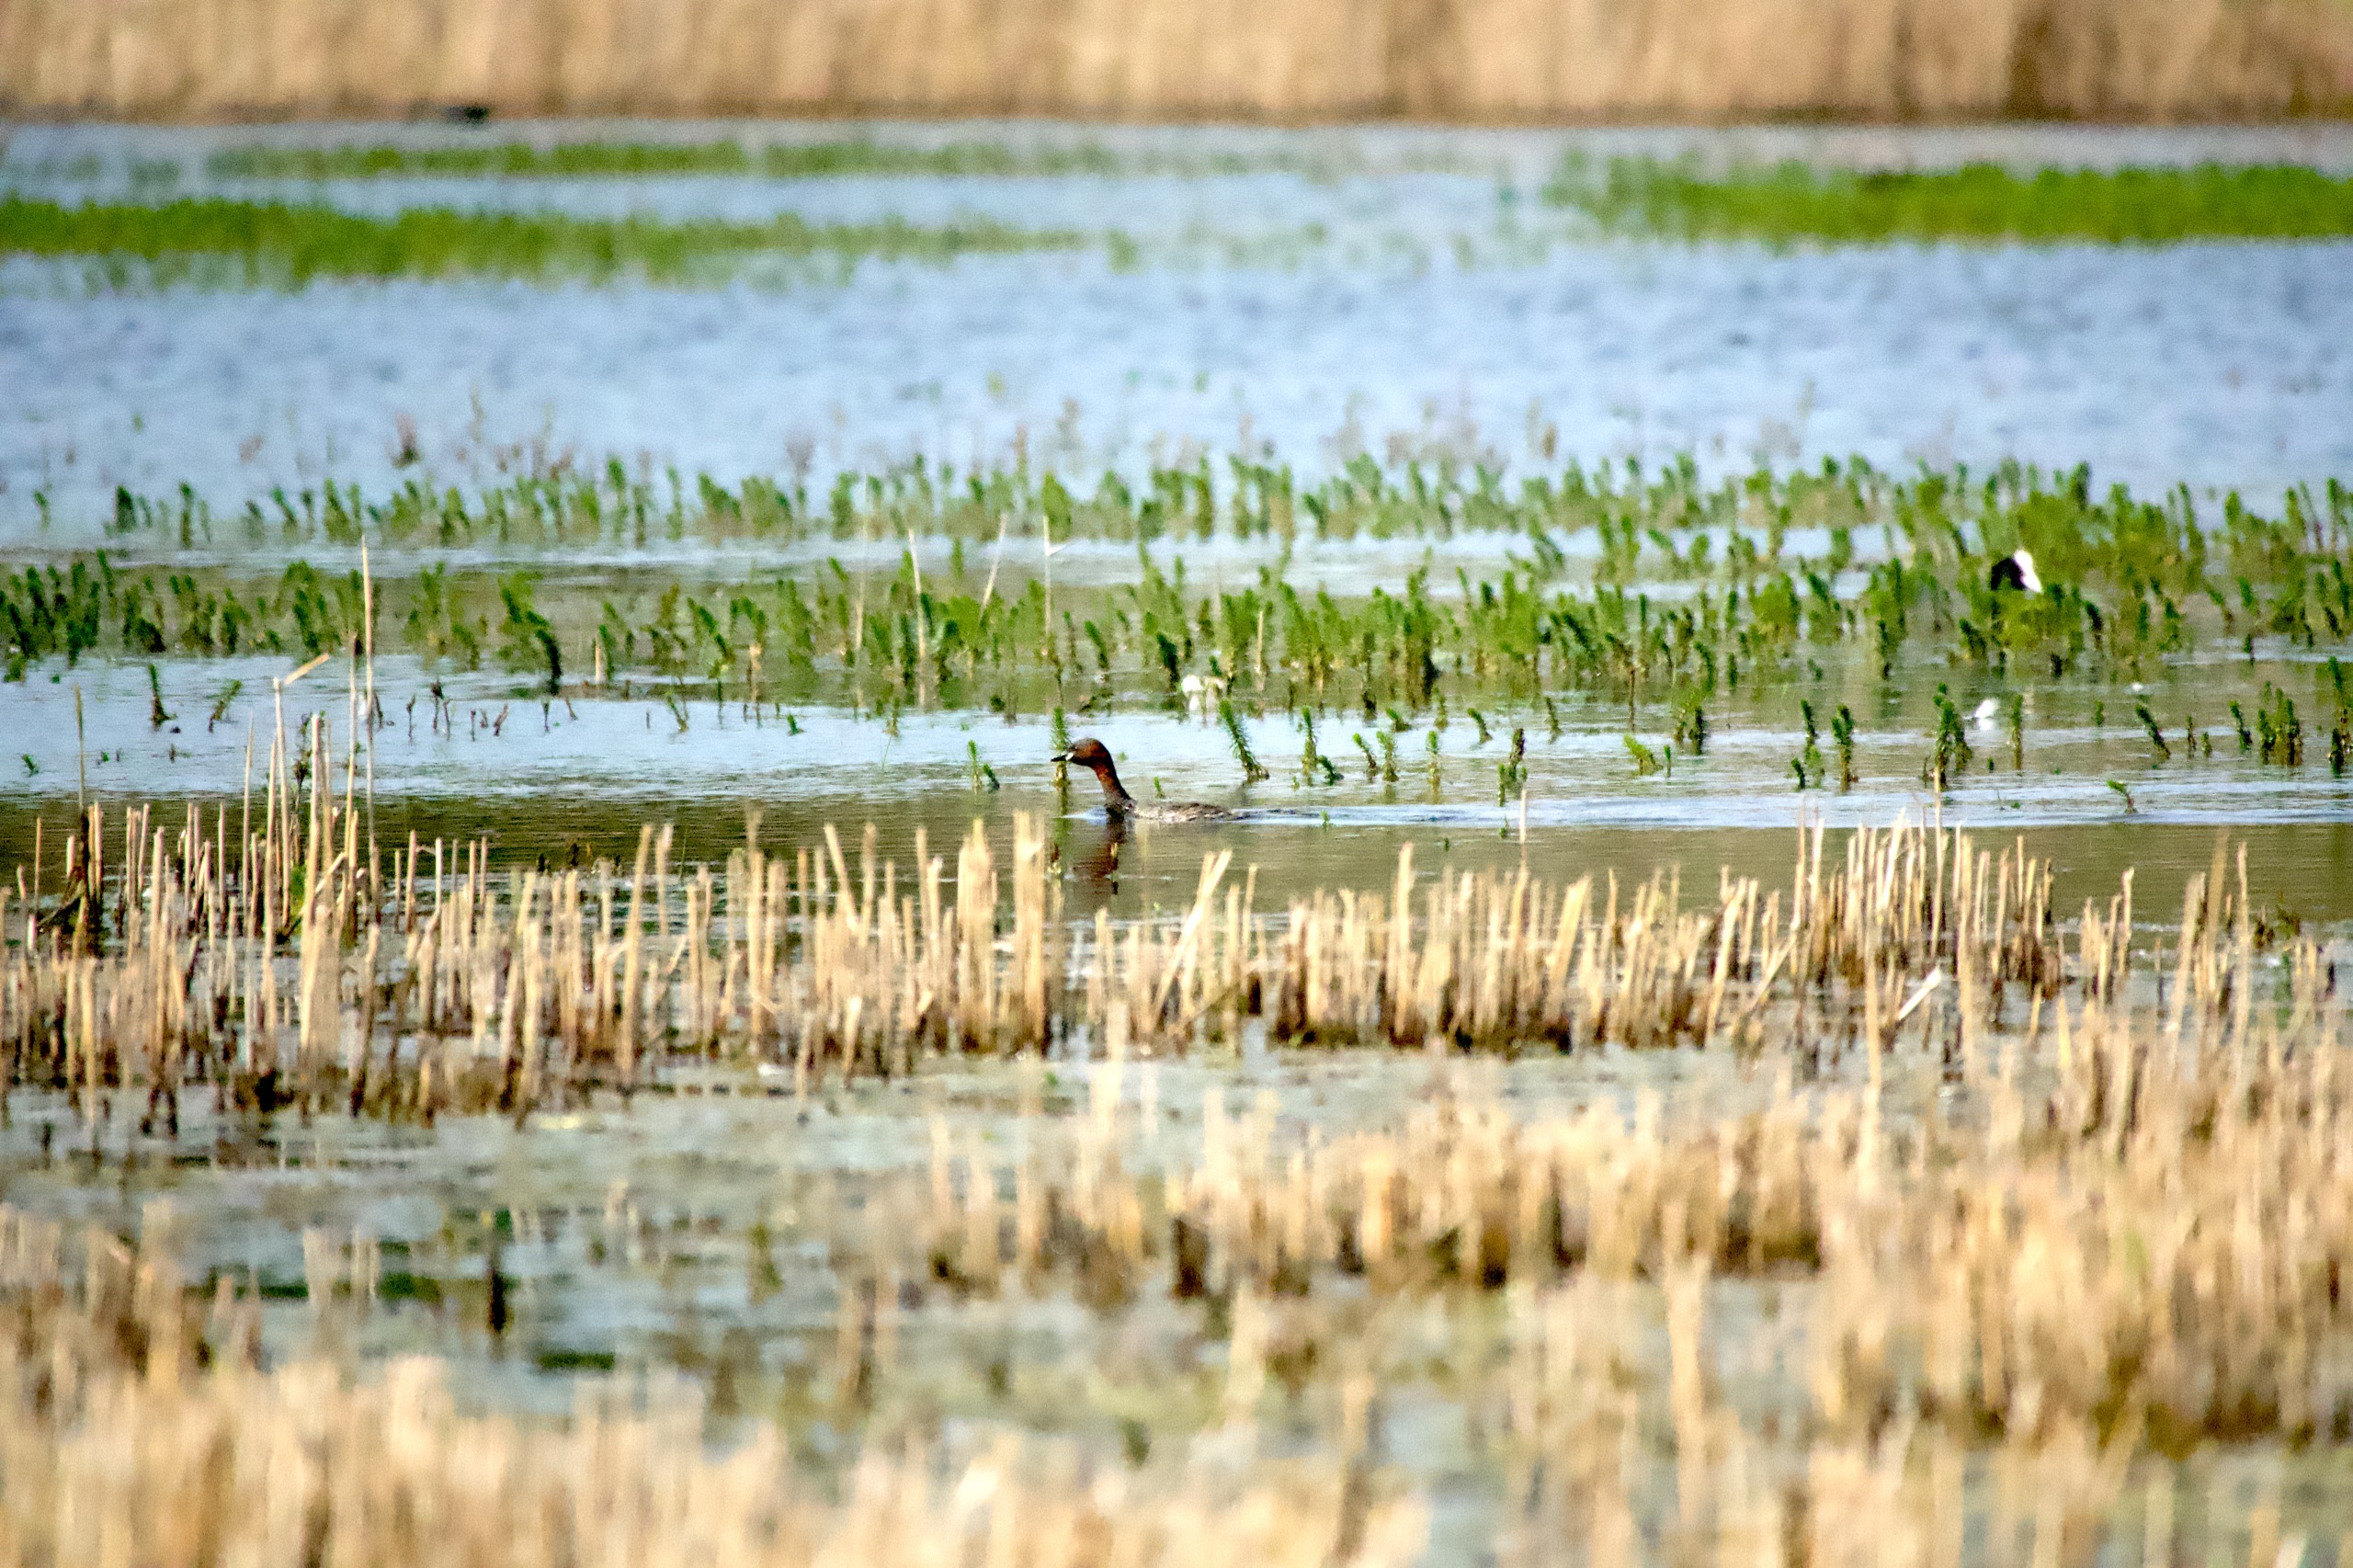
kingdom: Animalia
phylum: Chordata
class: Aves
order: Podicipediformes
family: Podicipedidae
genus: Tachybaptus
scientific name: Tachybaptus ruficollis
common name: Lille lappedykker
